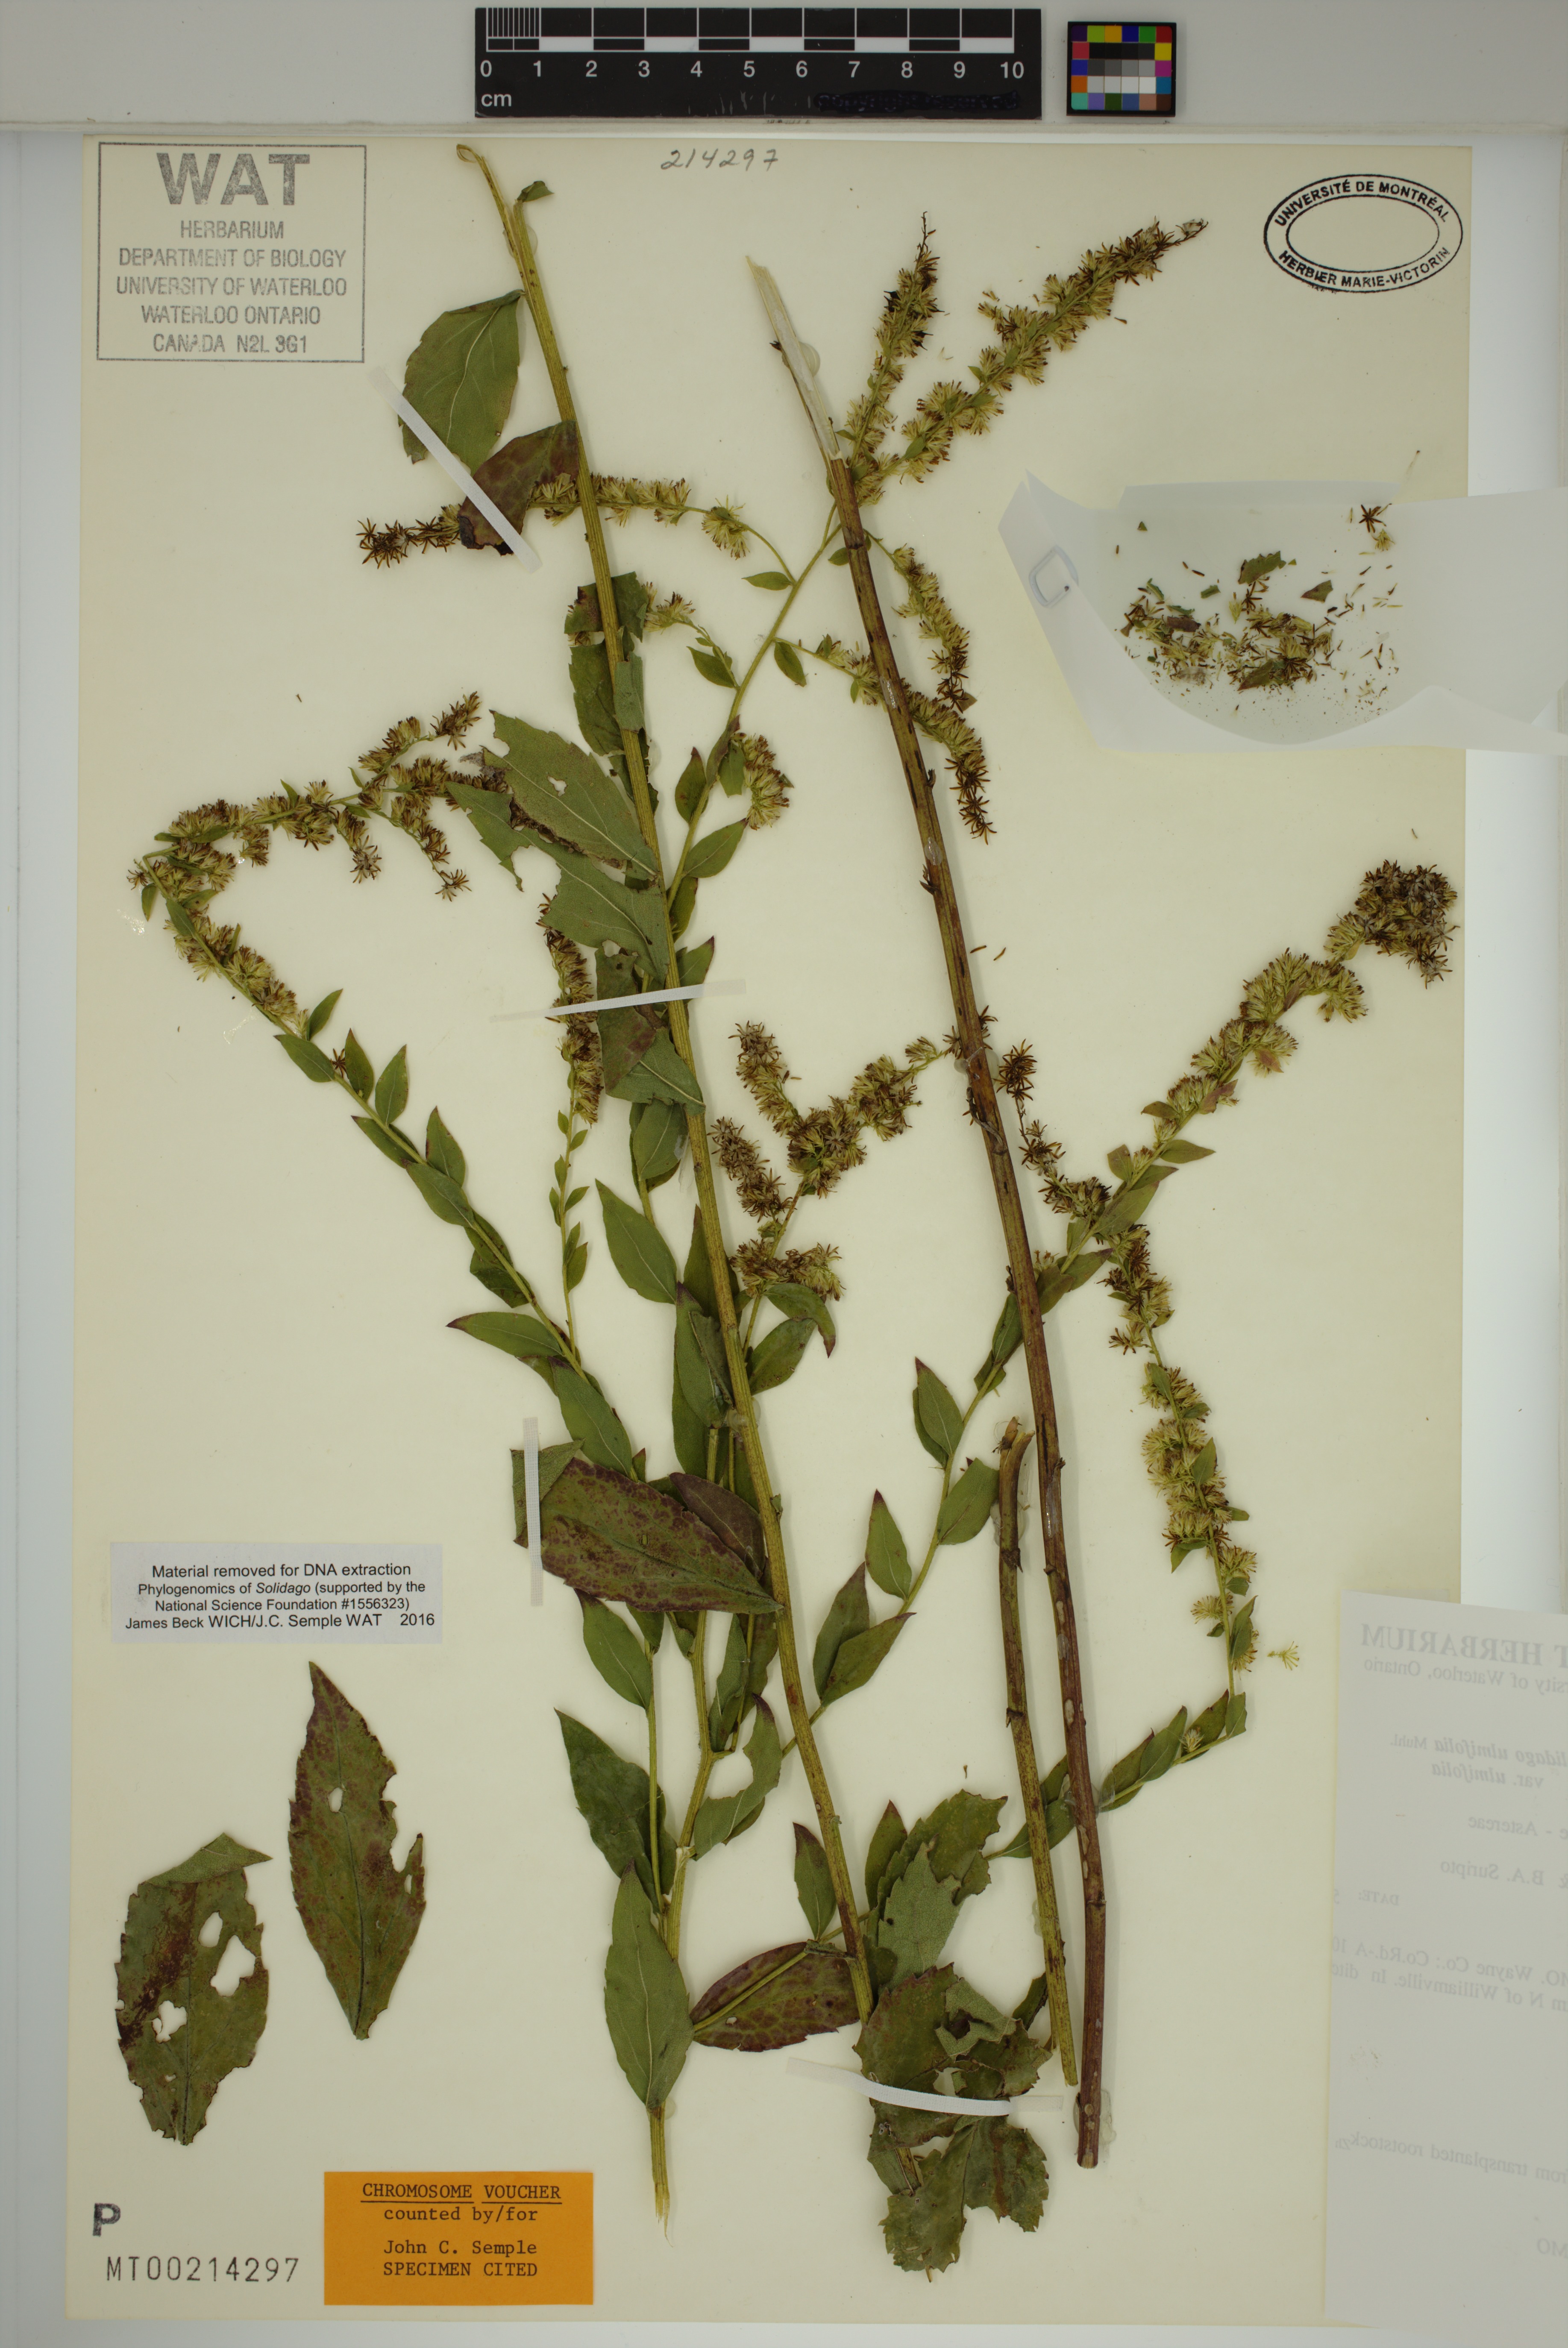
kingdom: Plantae
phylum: Tracheophyta
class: Magnoliopsida
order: Asterales
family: Asteraceae
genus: Solidago
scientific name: Solidago ulmifolia
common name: Elm-leaf goldenrod
